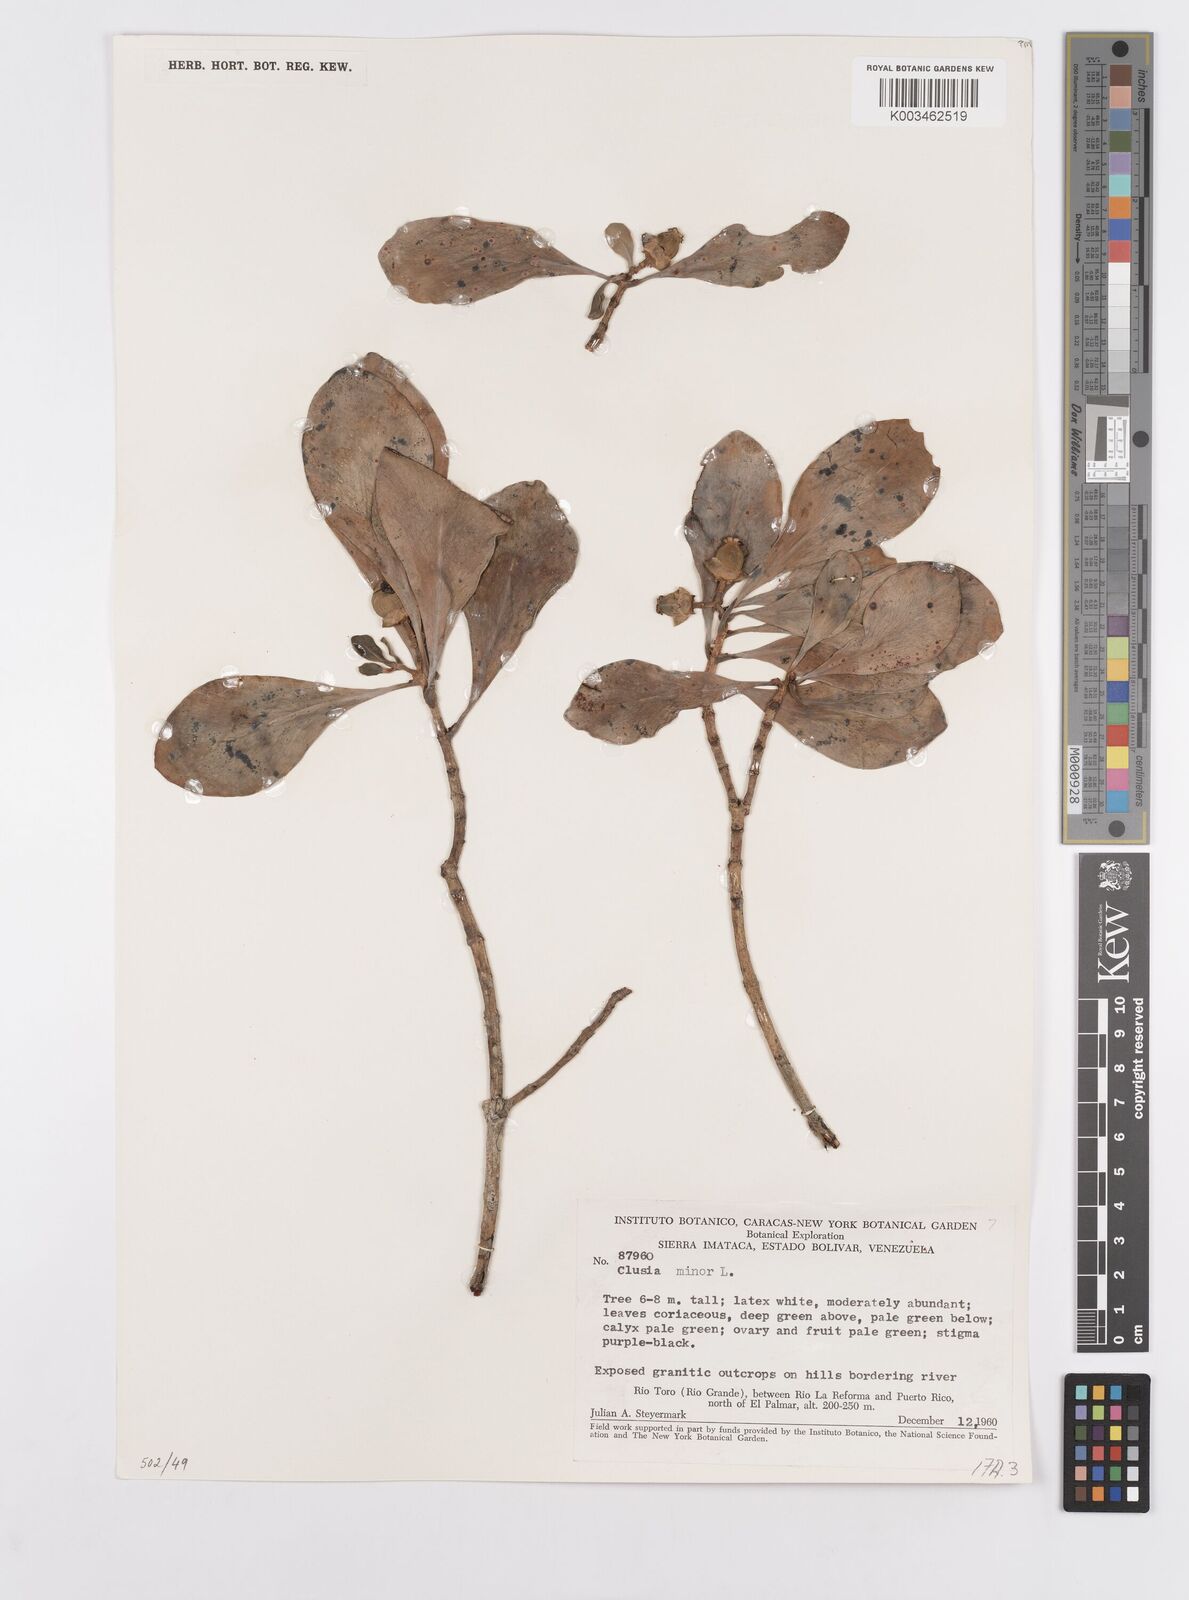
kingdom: Plantae
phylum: Tracheophyta
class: Magnoliopsida
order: Malpighiales
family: Clusiaceae
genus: Clusia
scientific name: Clusia minor
